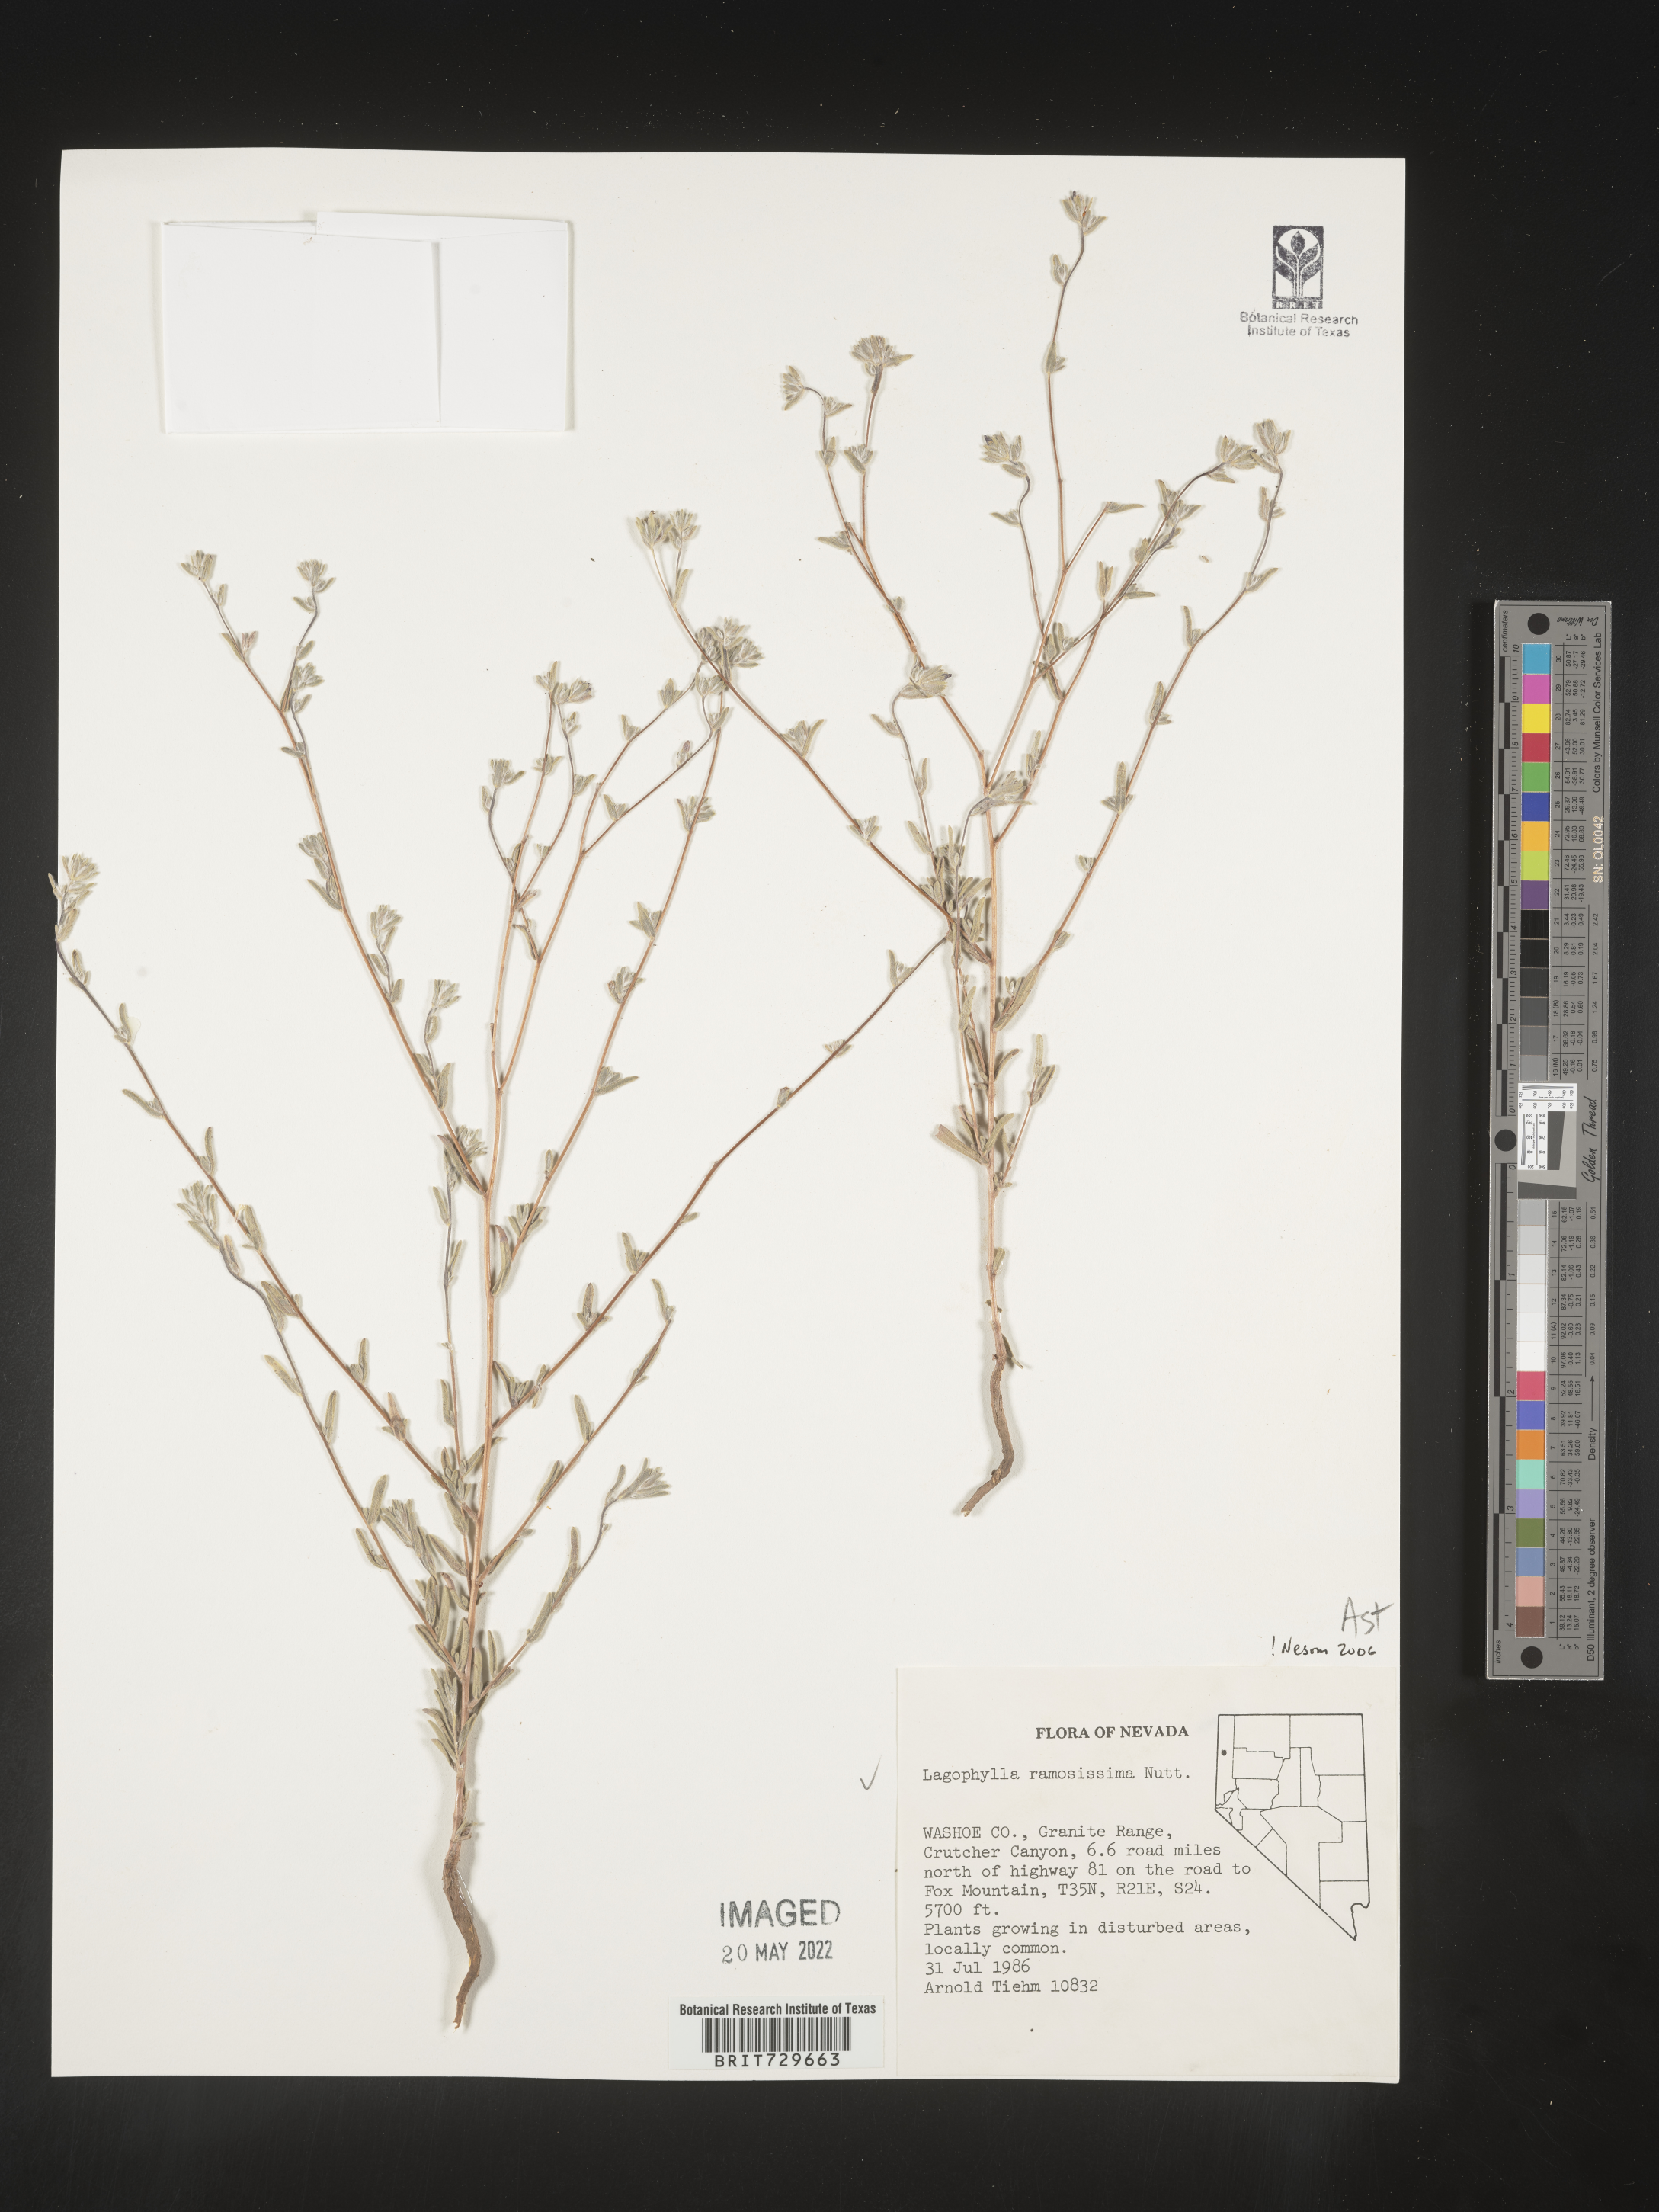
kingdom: Plantae
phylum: Tracheophyta
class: Magnoliopsida
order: Asterales
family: Asteraceae
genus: Lagophylla
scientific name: Lagophylla
